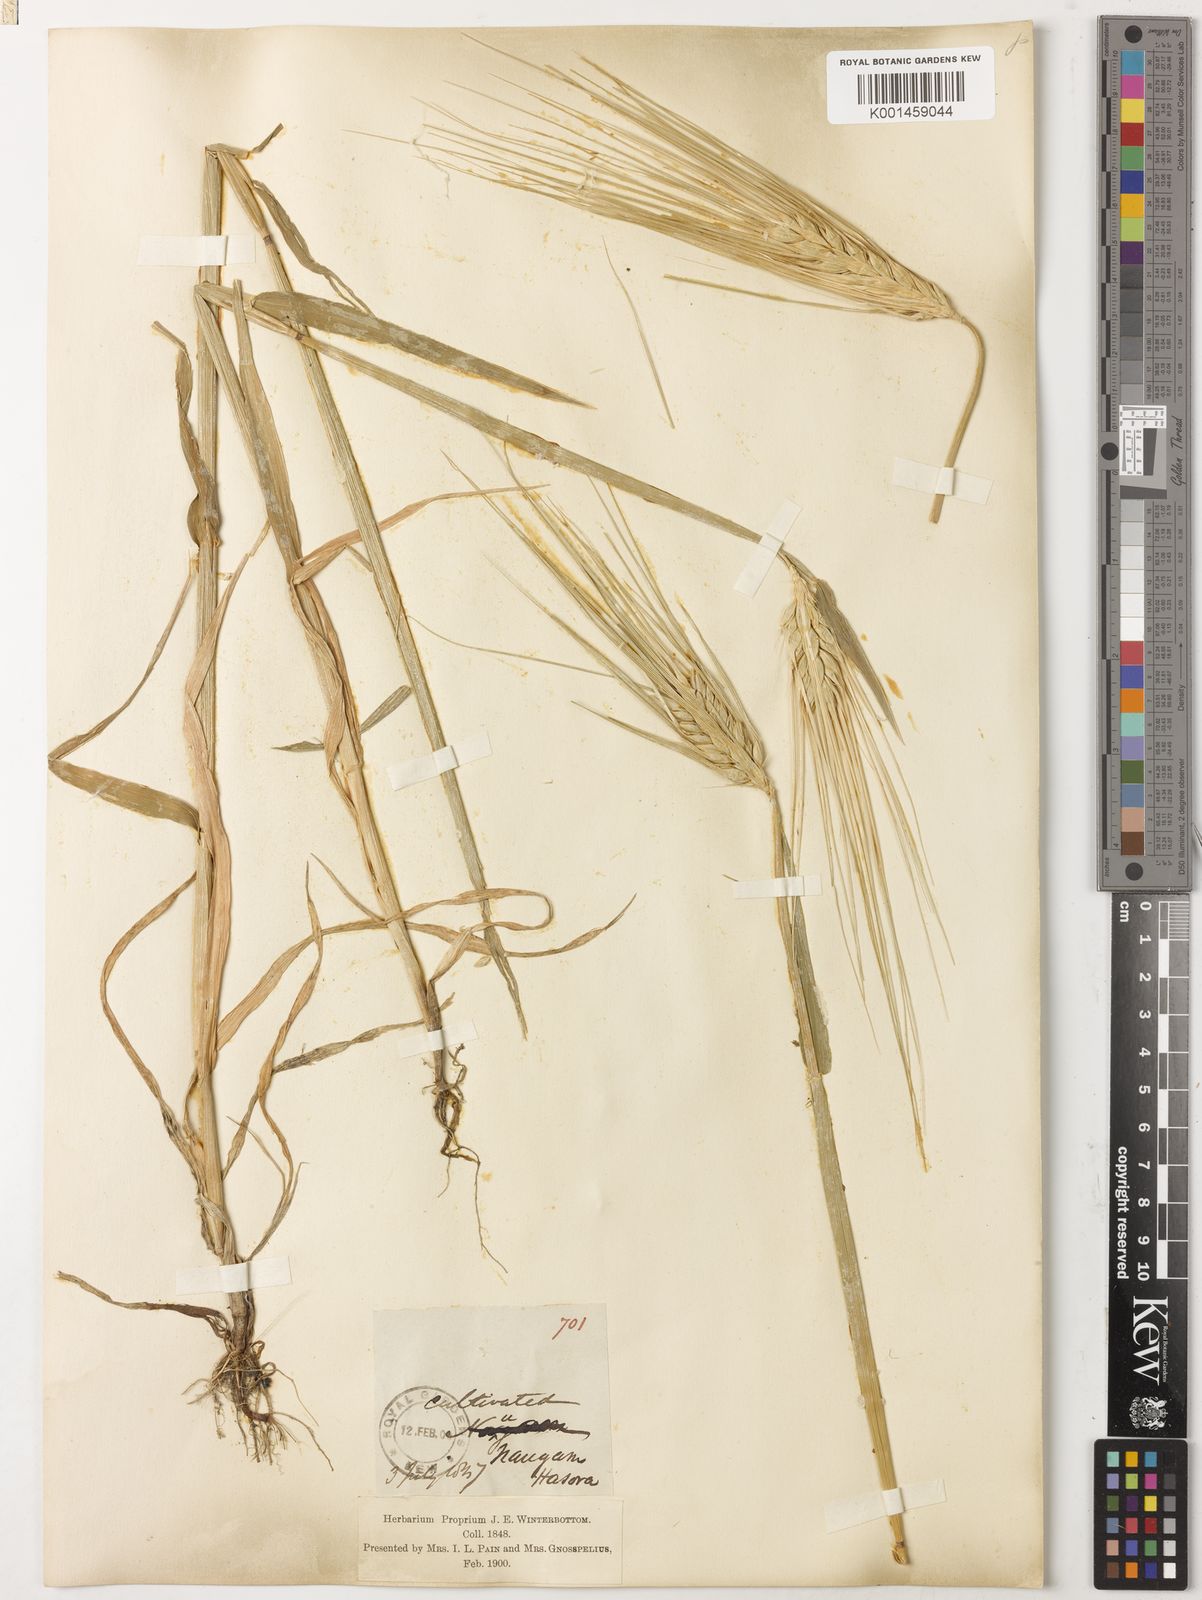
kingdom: Plantae
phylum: Tracheophyta
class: Liliopsida
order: Poales
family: Poaceae
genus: Hordeum
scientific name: Hordeum vulgare
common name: Common barley
